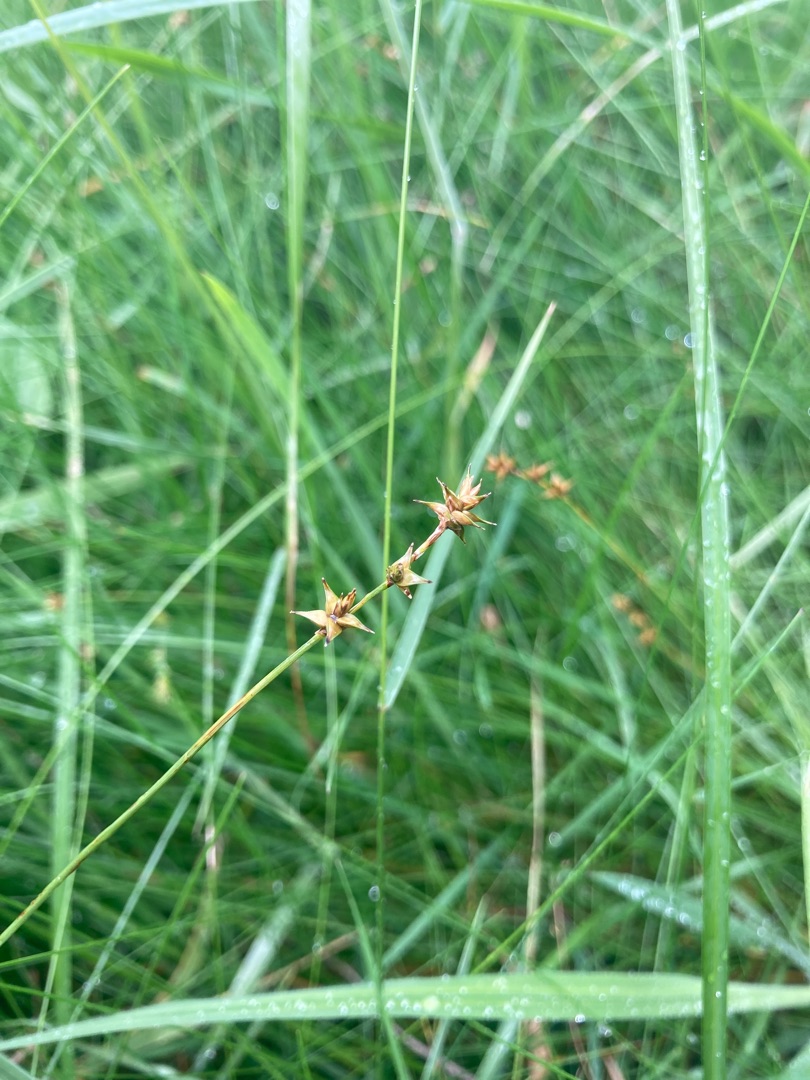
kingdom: Plantae
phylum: Tracheophyta
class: Liliopsida
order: Poales
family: Cyperaceae
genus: Carex
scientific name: Carex echinata
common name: Stjerne-star
